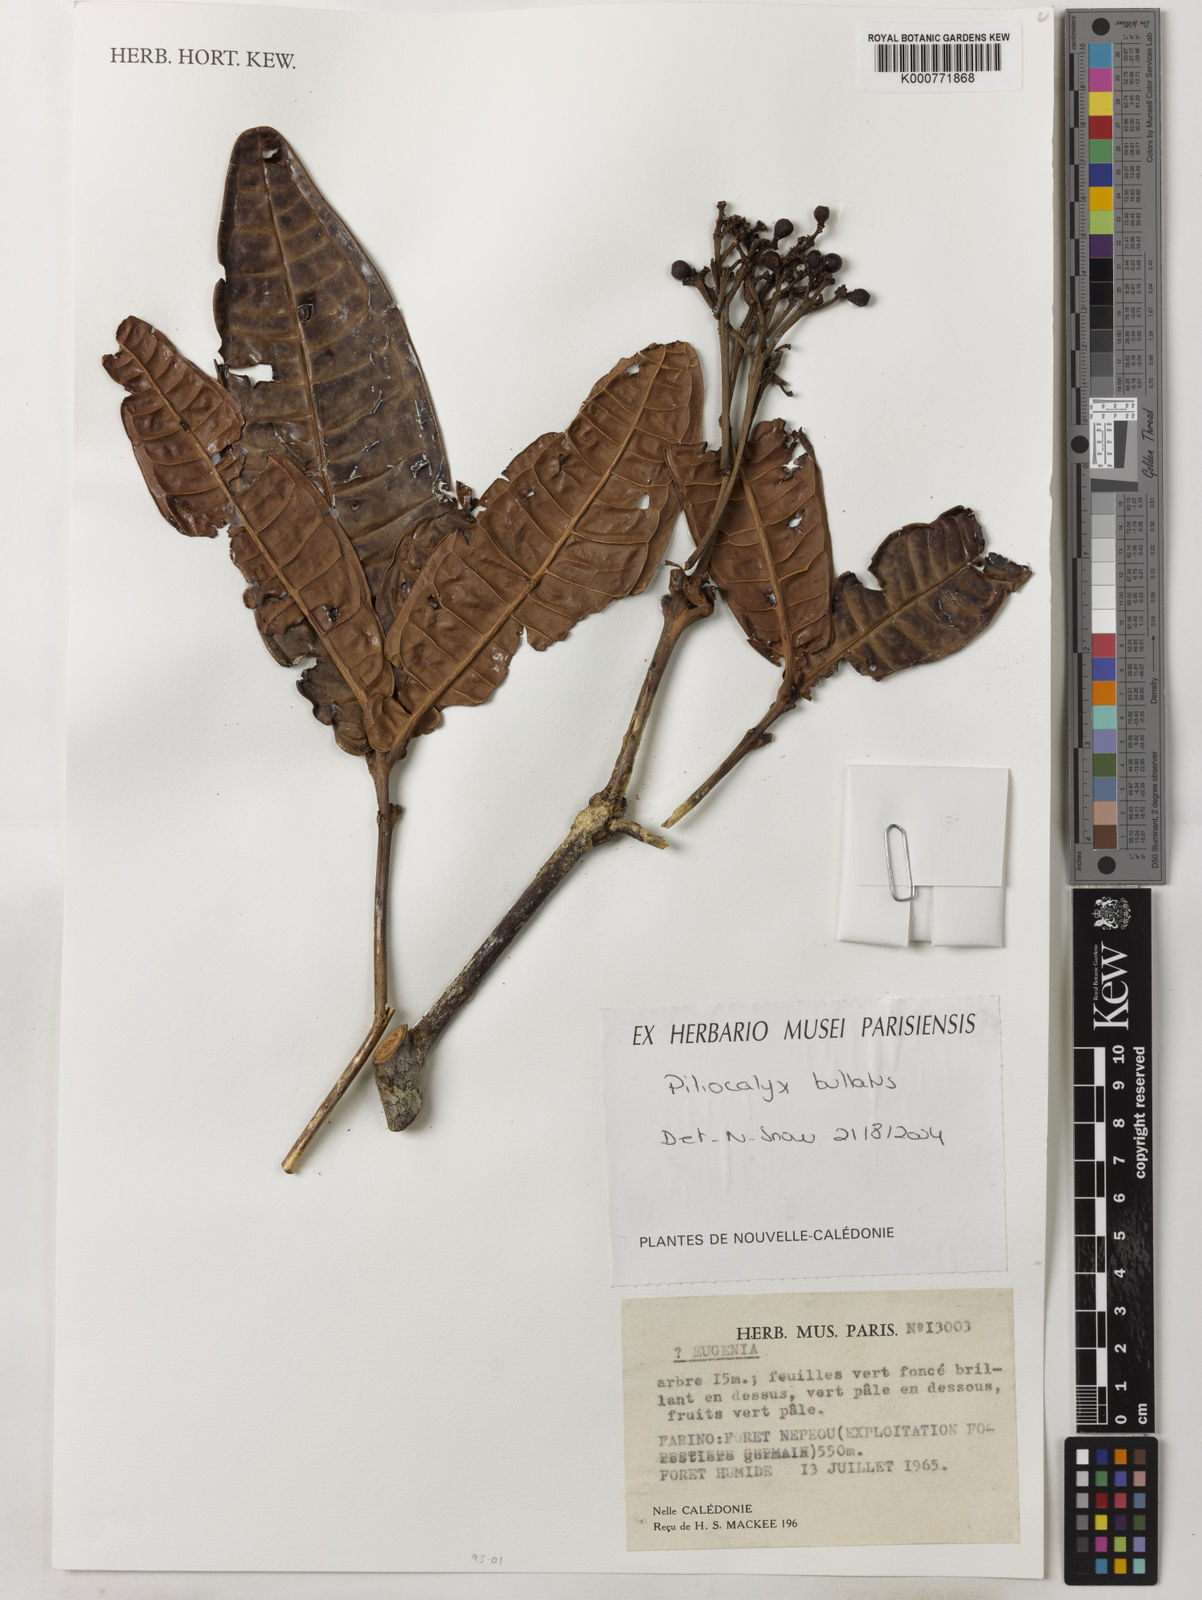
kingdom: Plantae
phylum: Tracheophyta
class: Magnoliopsida
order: Myrtales
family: Myrtaceae
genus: Syzygium
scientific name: Syzygium bullatum
